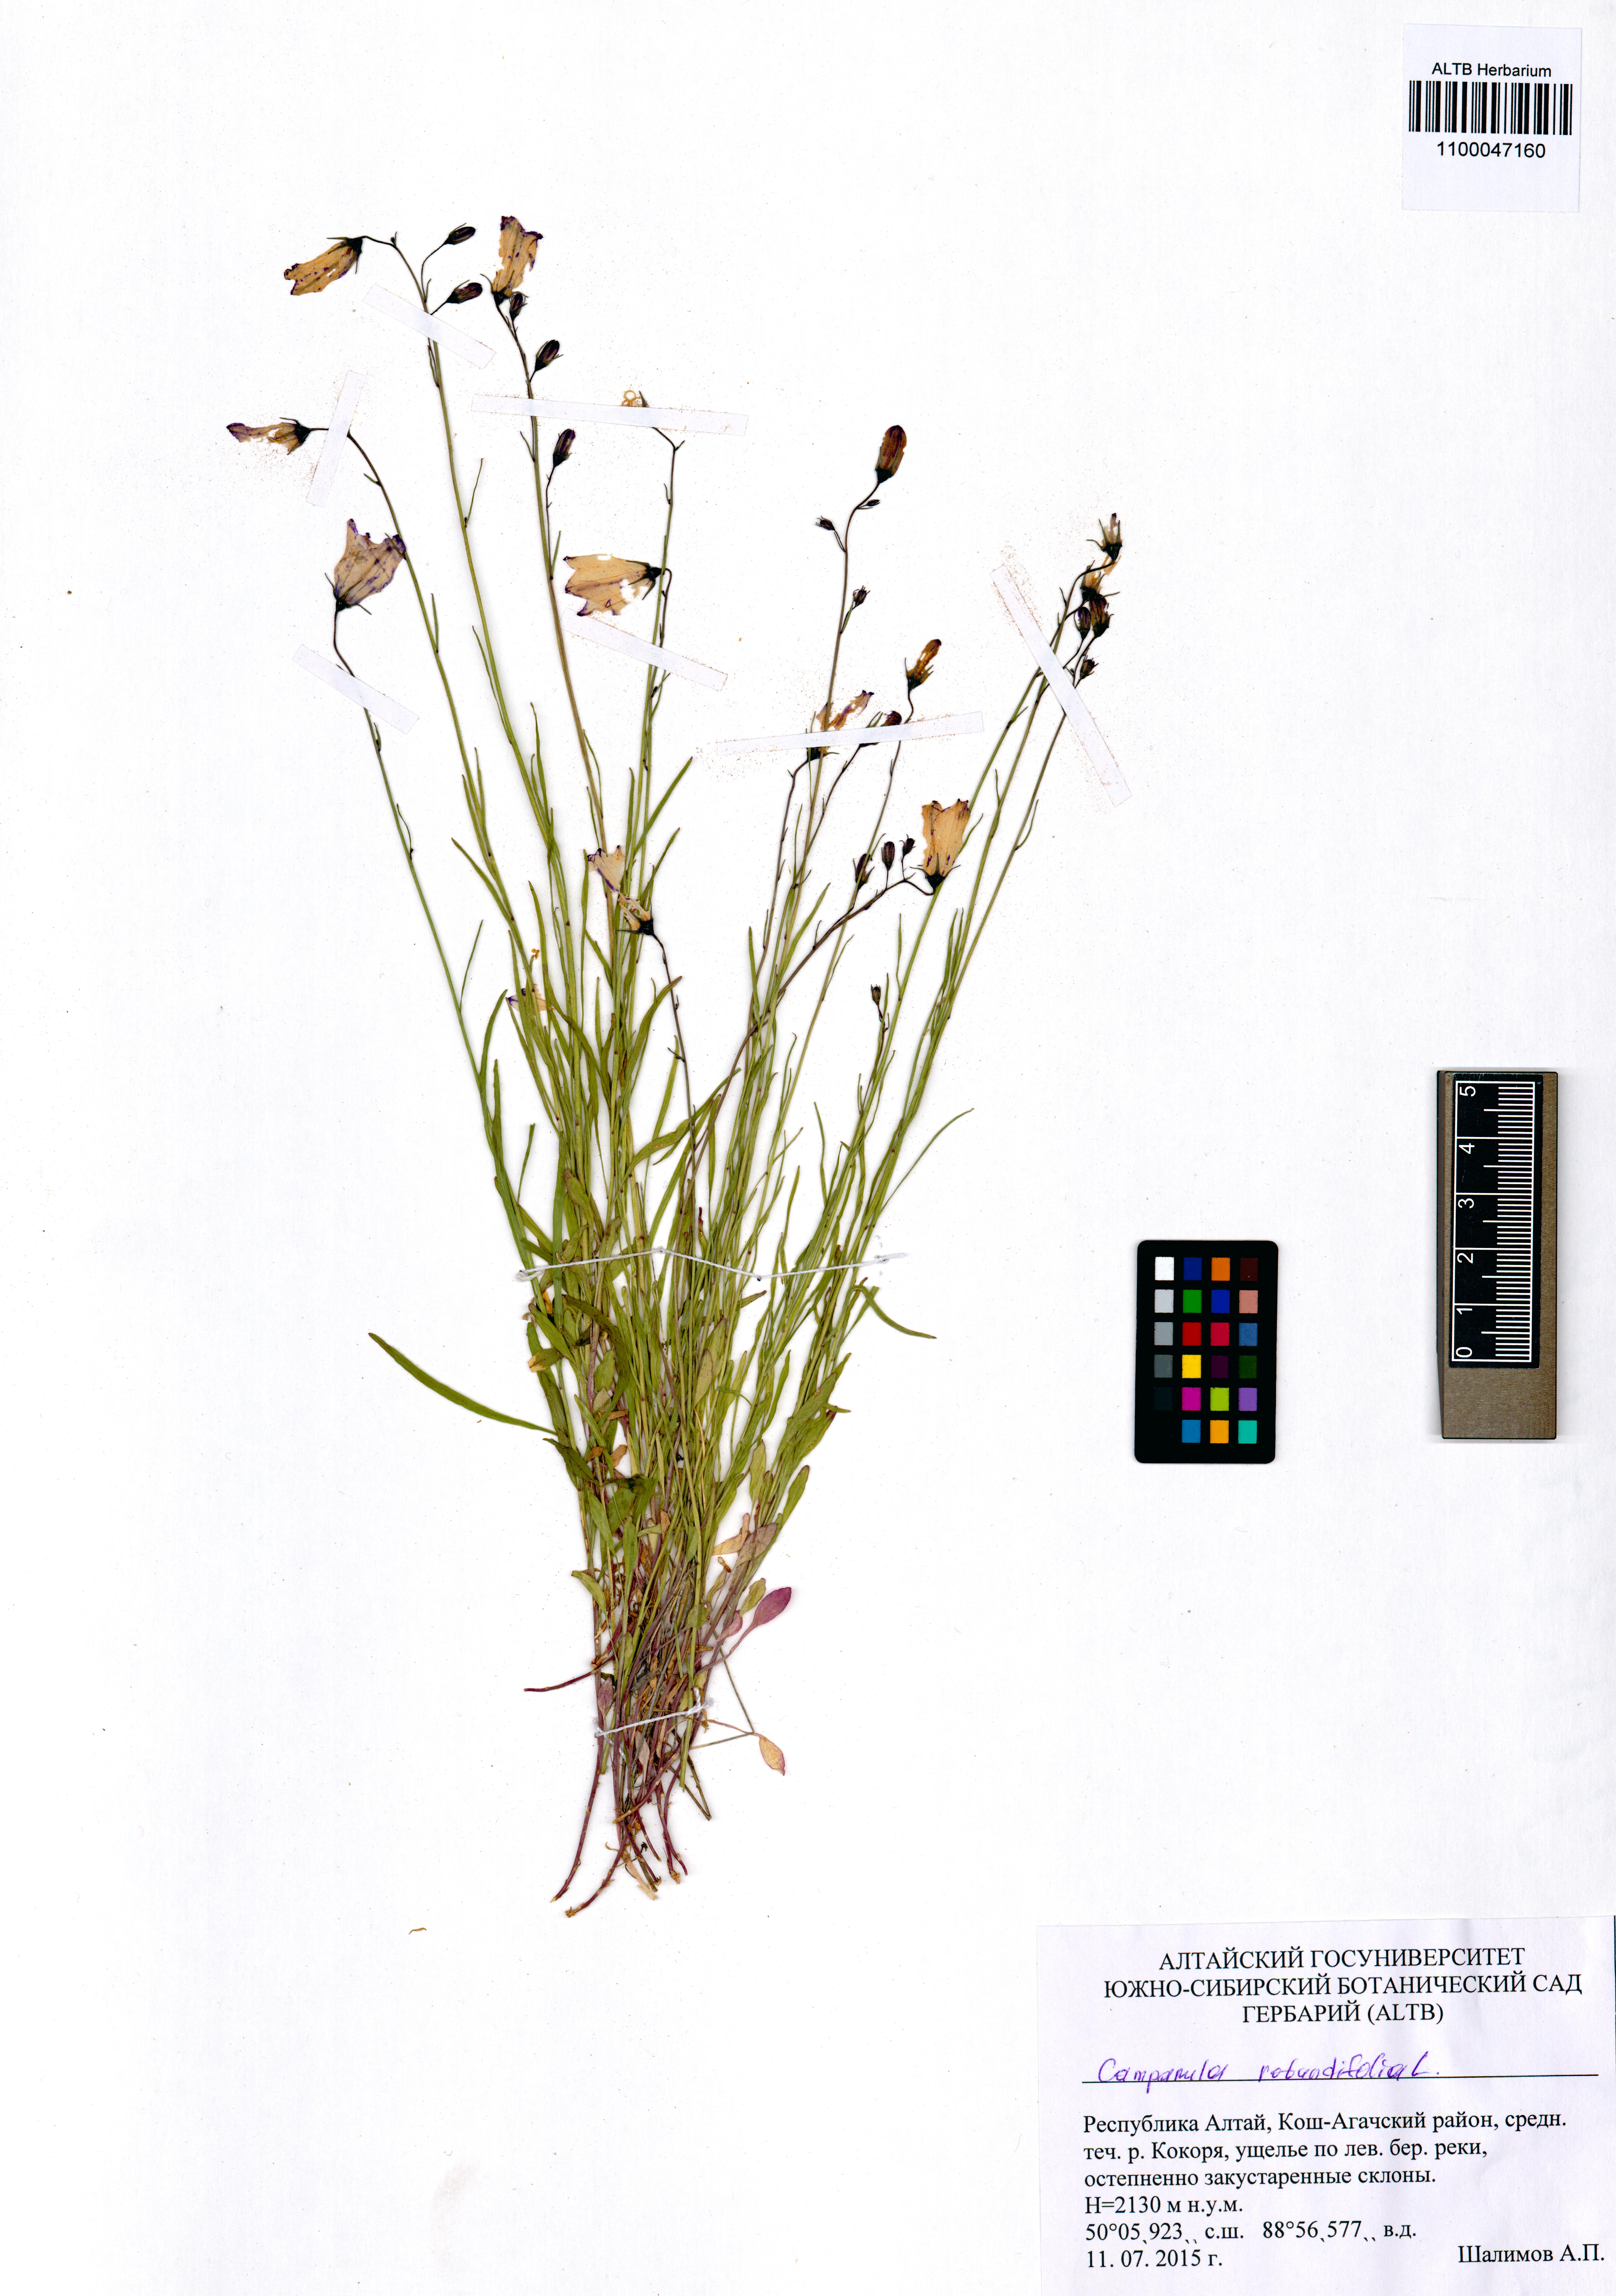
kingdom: Plantae
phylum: Tracheophyta
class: Magnoliopsida
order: Asterales
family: Campanulaceae
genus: Campanula
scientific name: Campanula rotundifolia
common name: Harebell
